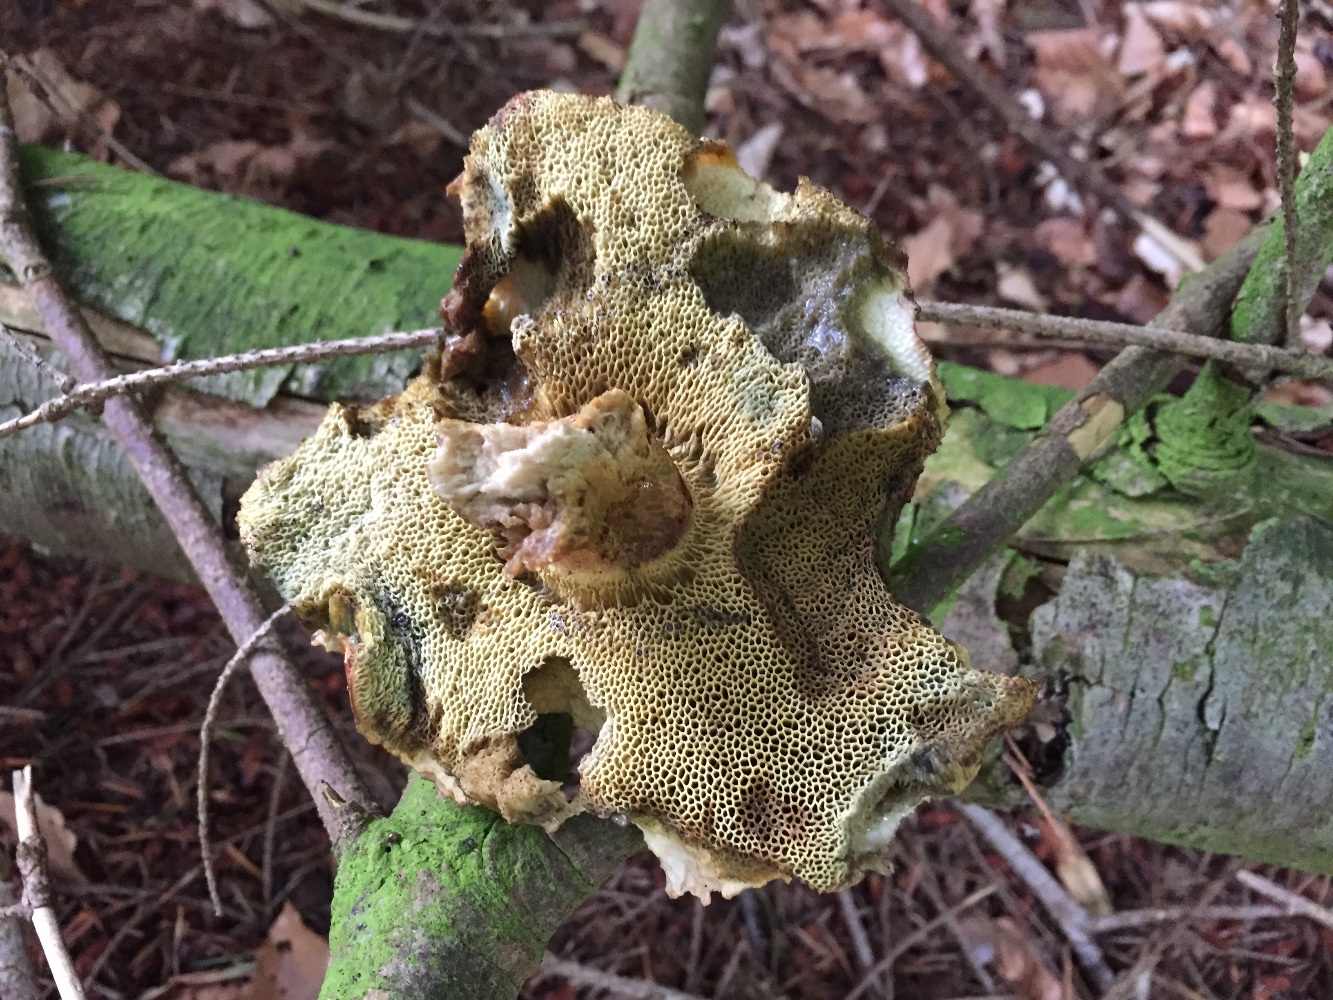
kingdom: Fungi
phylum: Basidiomycota
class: Agaricomycetes
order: Boletales
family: Boletaceae
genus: Imleria
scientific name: Imleria badia
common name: brunstokket rørhat
